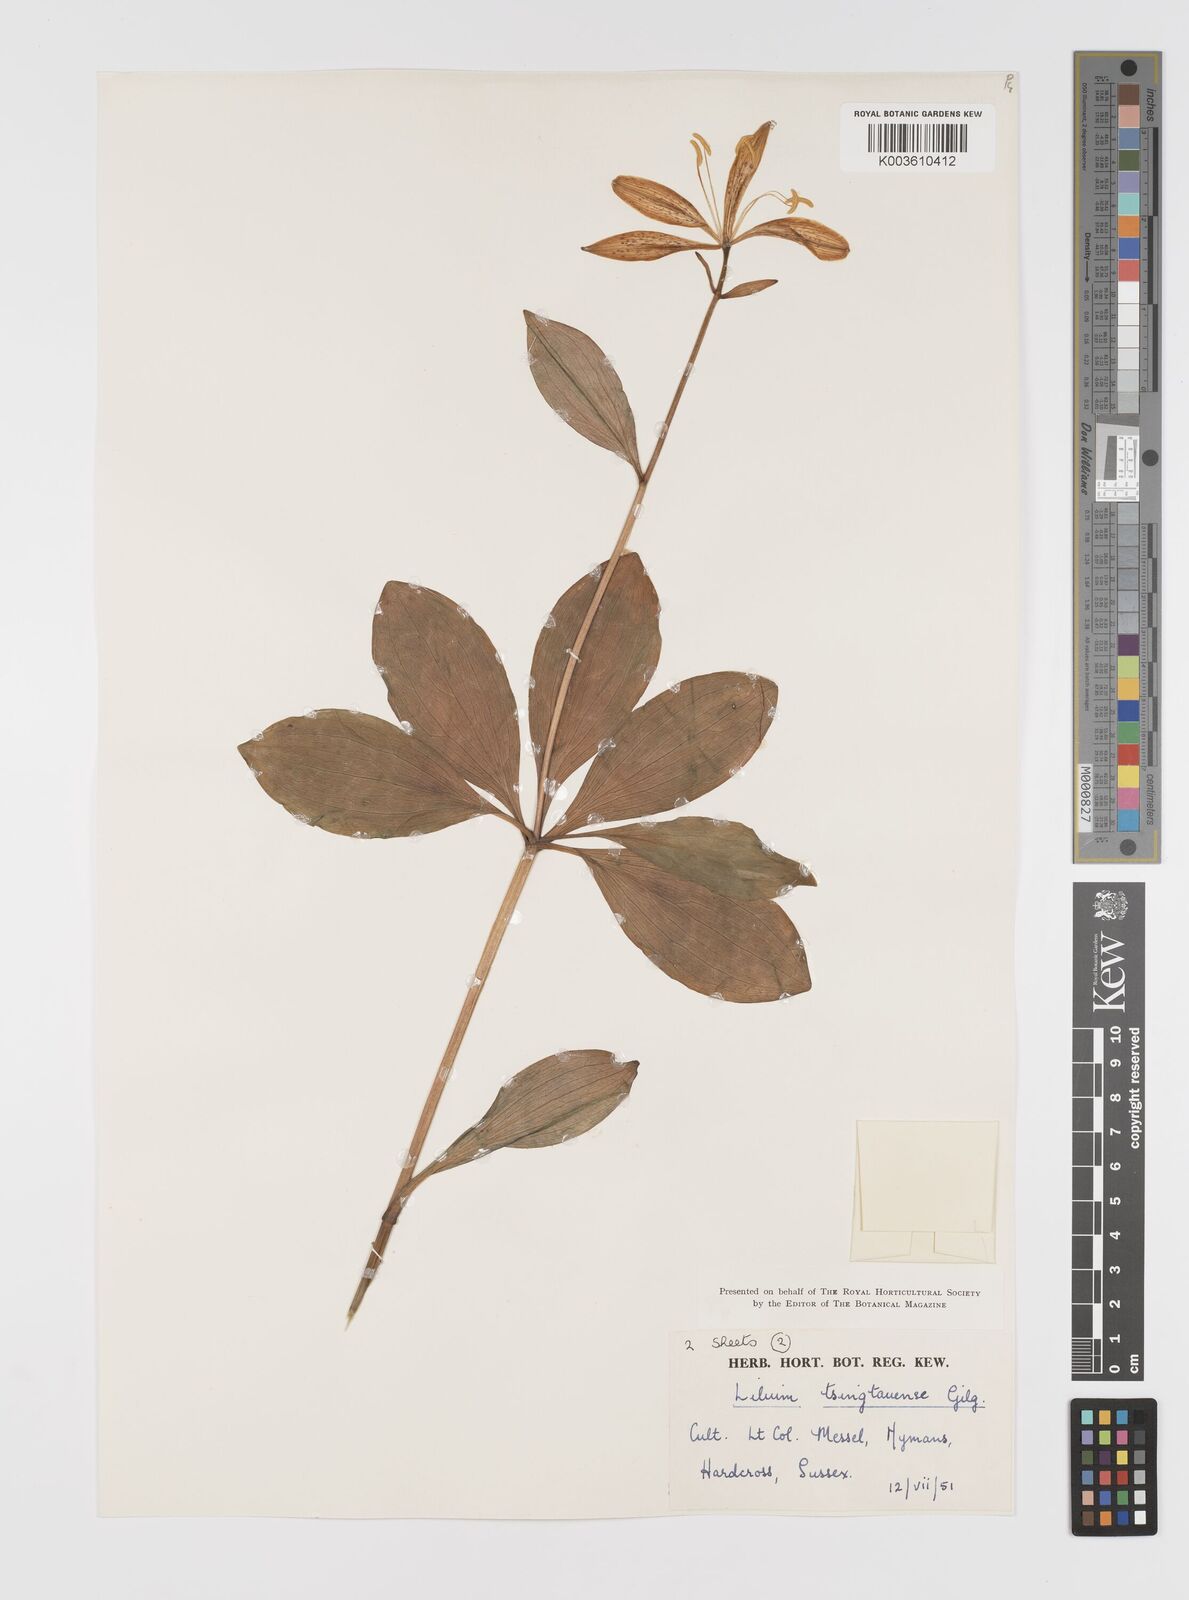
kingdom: Plantae
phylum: Tracheophyta
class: Liliopsida
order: Liliales
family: Liliaceae
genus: Lilium
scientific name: Lilium tsingtauense
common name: Korean wheel lily
